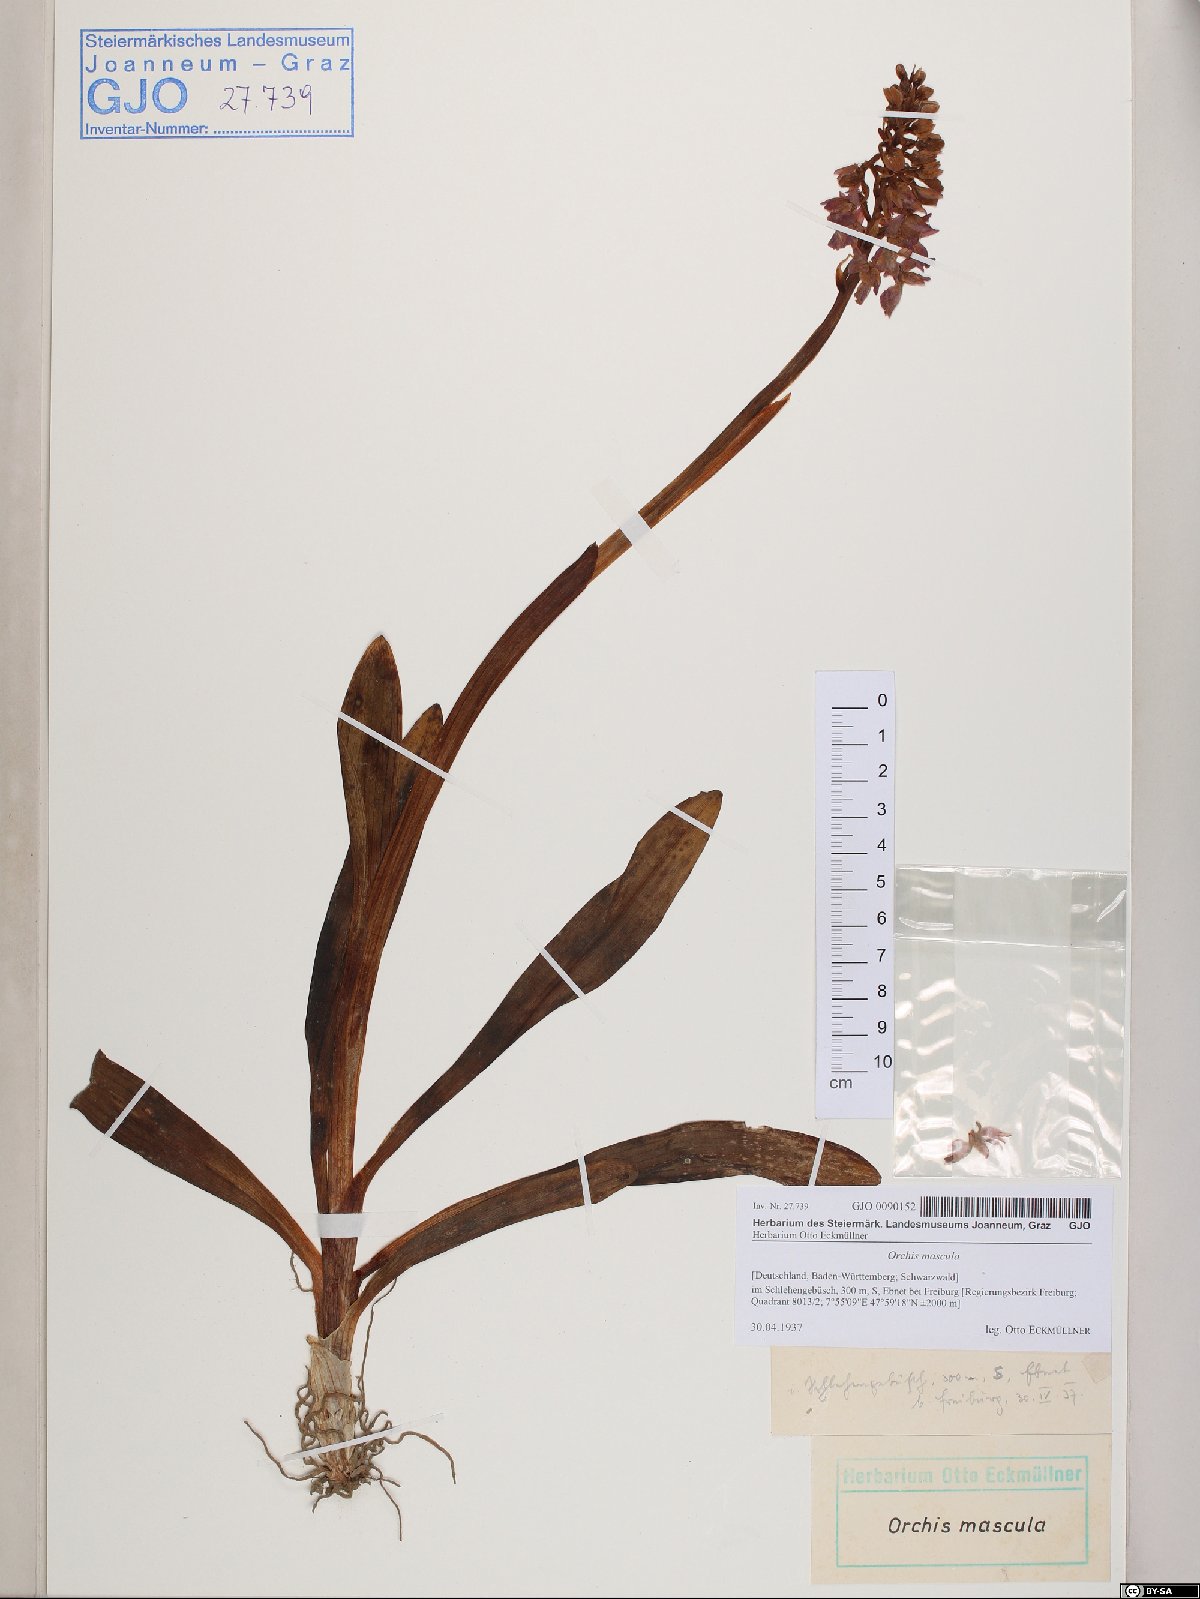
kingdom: Plantae
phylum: Tracheophyta
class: Liliopsida
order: Asparagales
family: Orchidaceae
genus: Orchis
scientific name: Orchis mascula
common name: Early-purple orchid
